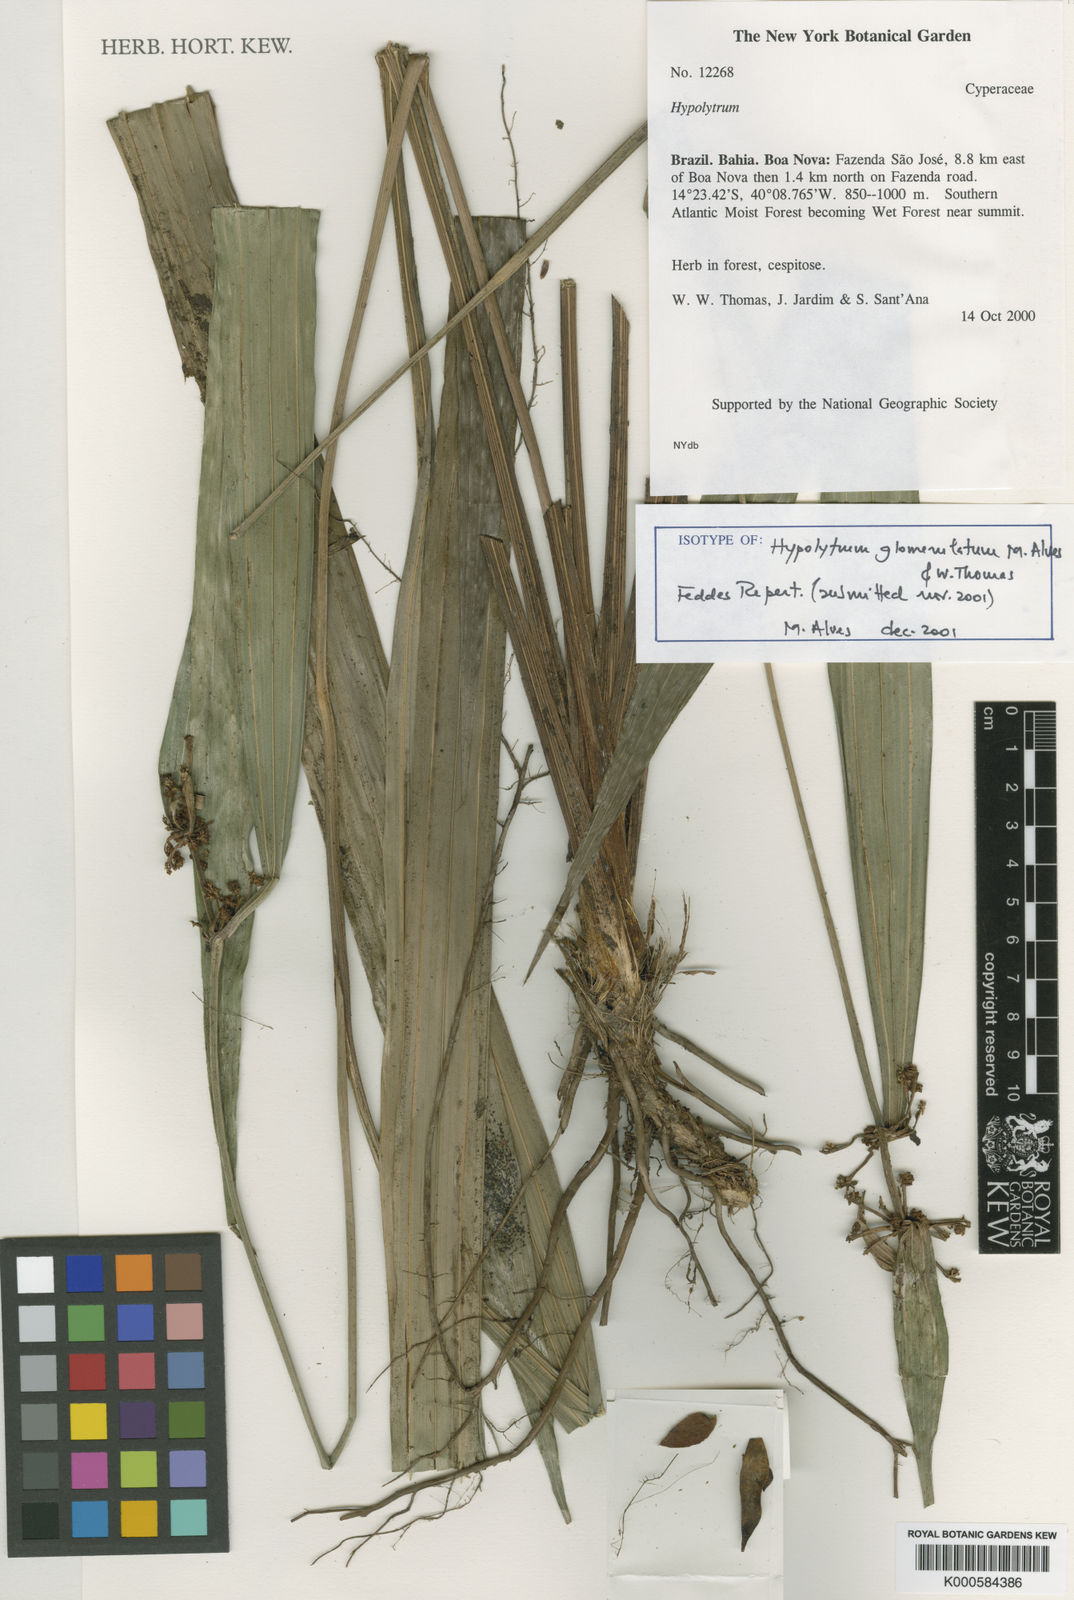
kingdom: Plantae
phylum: Tracheophyta
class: Liliopsida
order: Poales
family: Cyperaceae
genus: Hypolytrum
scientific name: Hypolytrum glomerulatum
